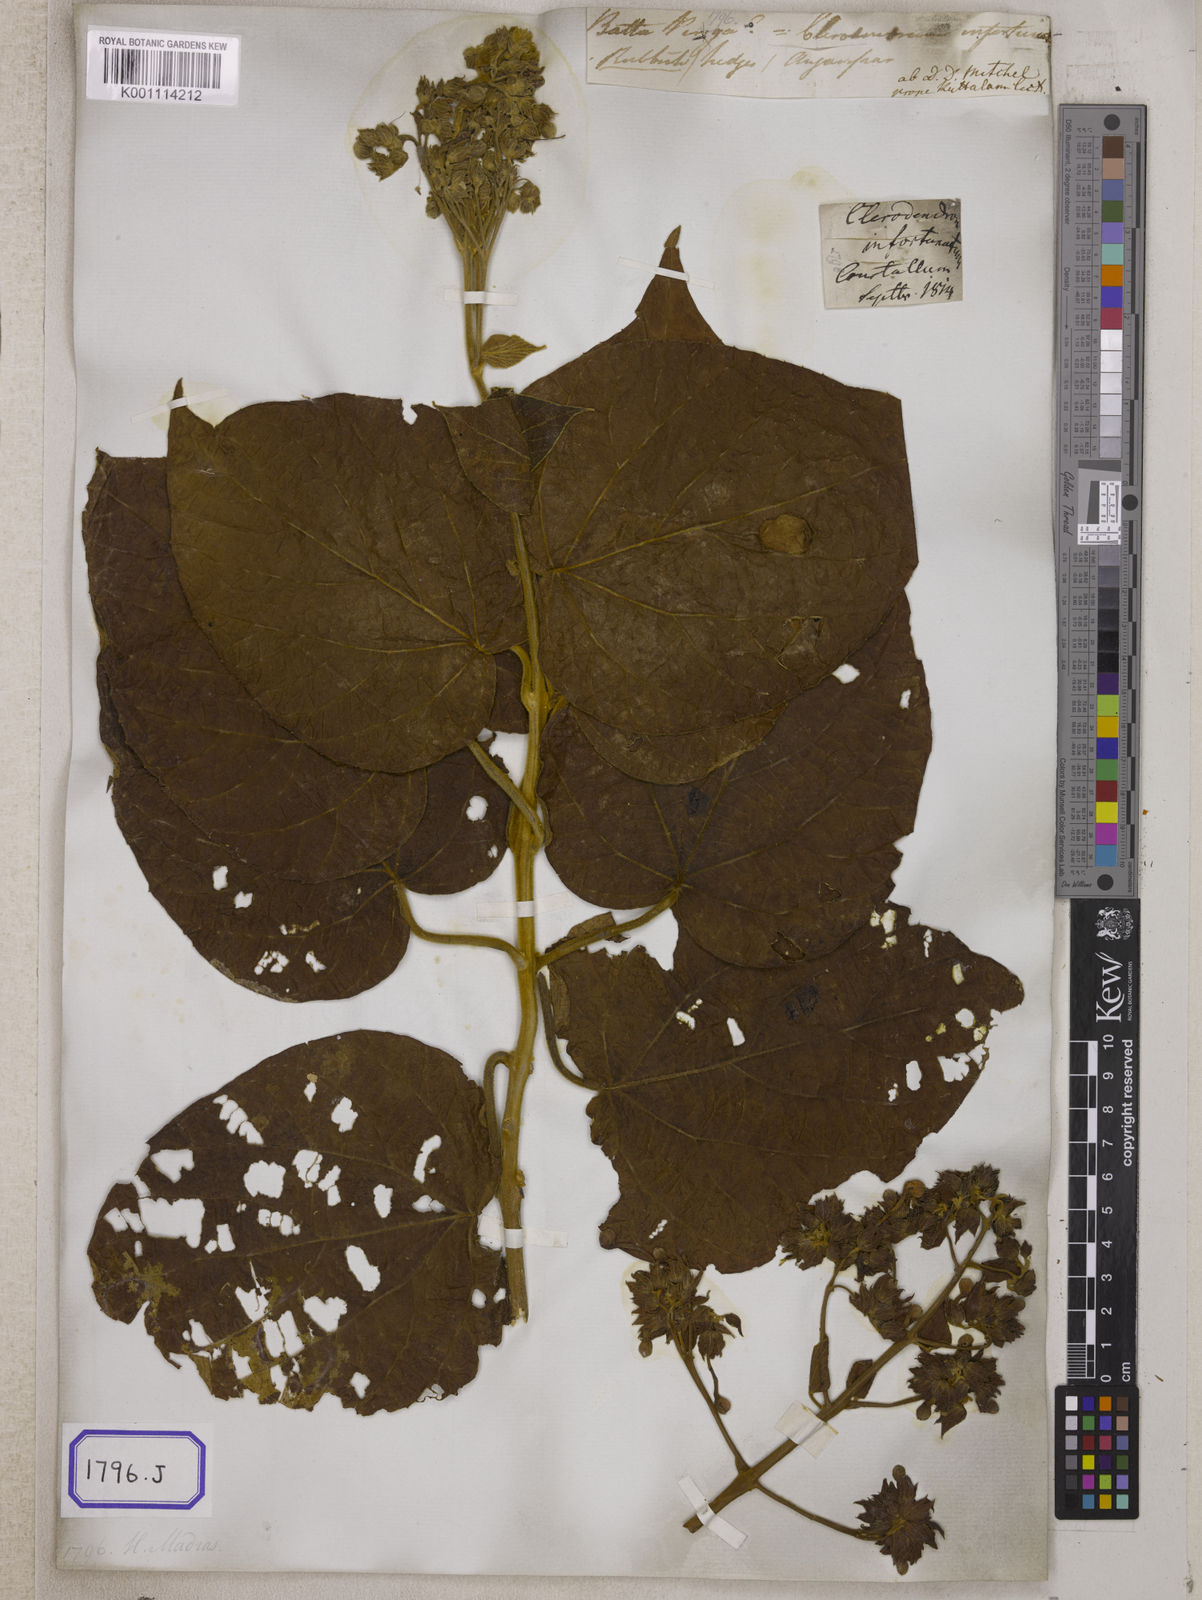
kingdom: Plantae
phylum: Tracheophyta
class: Magnoliopsida
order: Lamiales
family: Lamiaceae
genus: Clerodendrum
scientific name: Clerodendrum infortunatum
